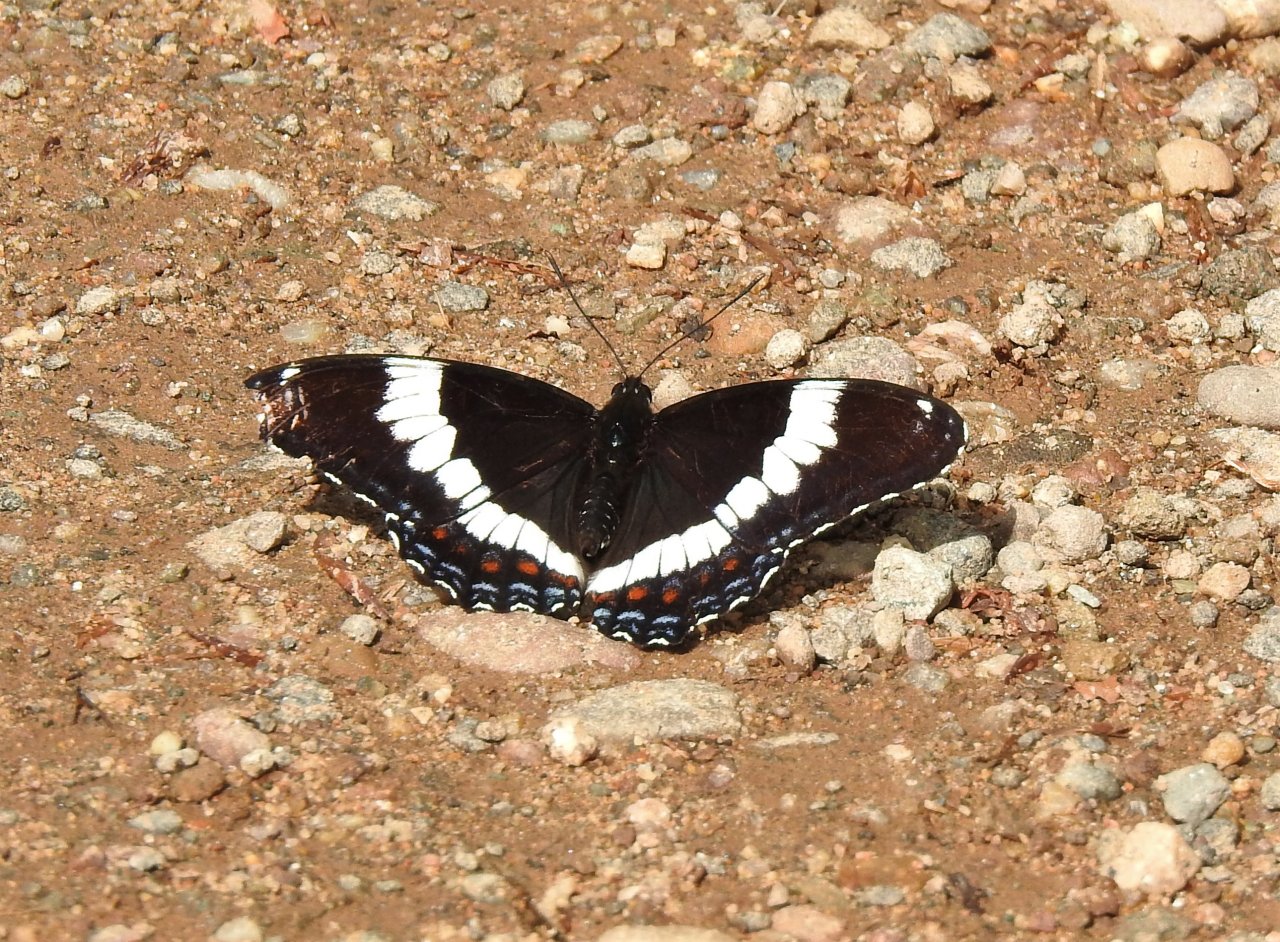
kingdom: Animalia
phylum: Arthropoda
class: Insecta
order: Lepidoptera
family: Nymphalidae
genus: Limenitis
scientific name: Limenitis arthemis
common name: Red-spotted Admiral
